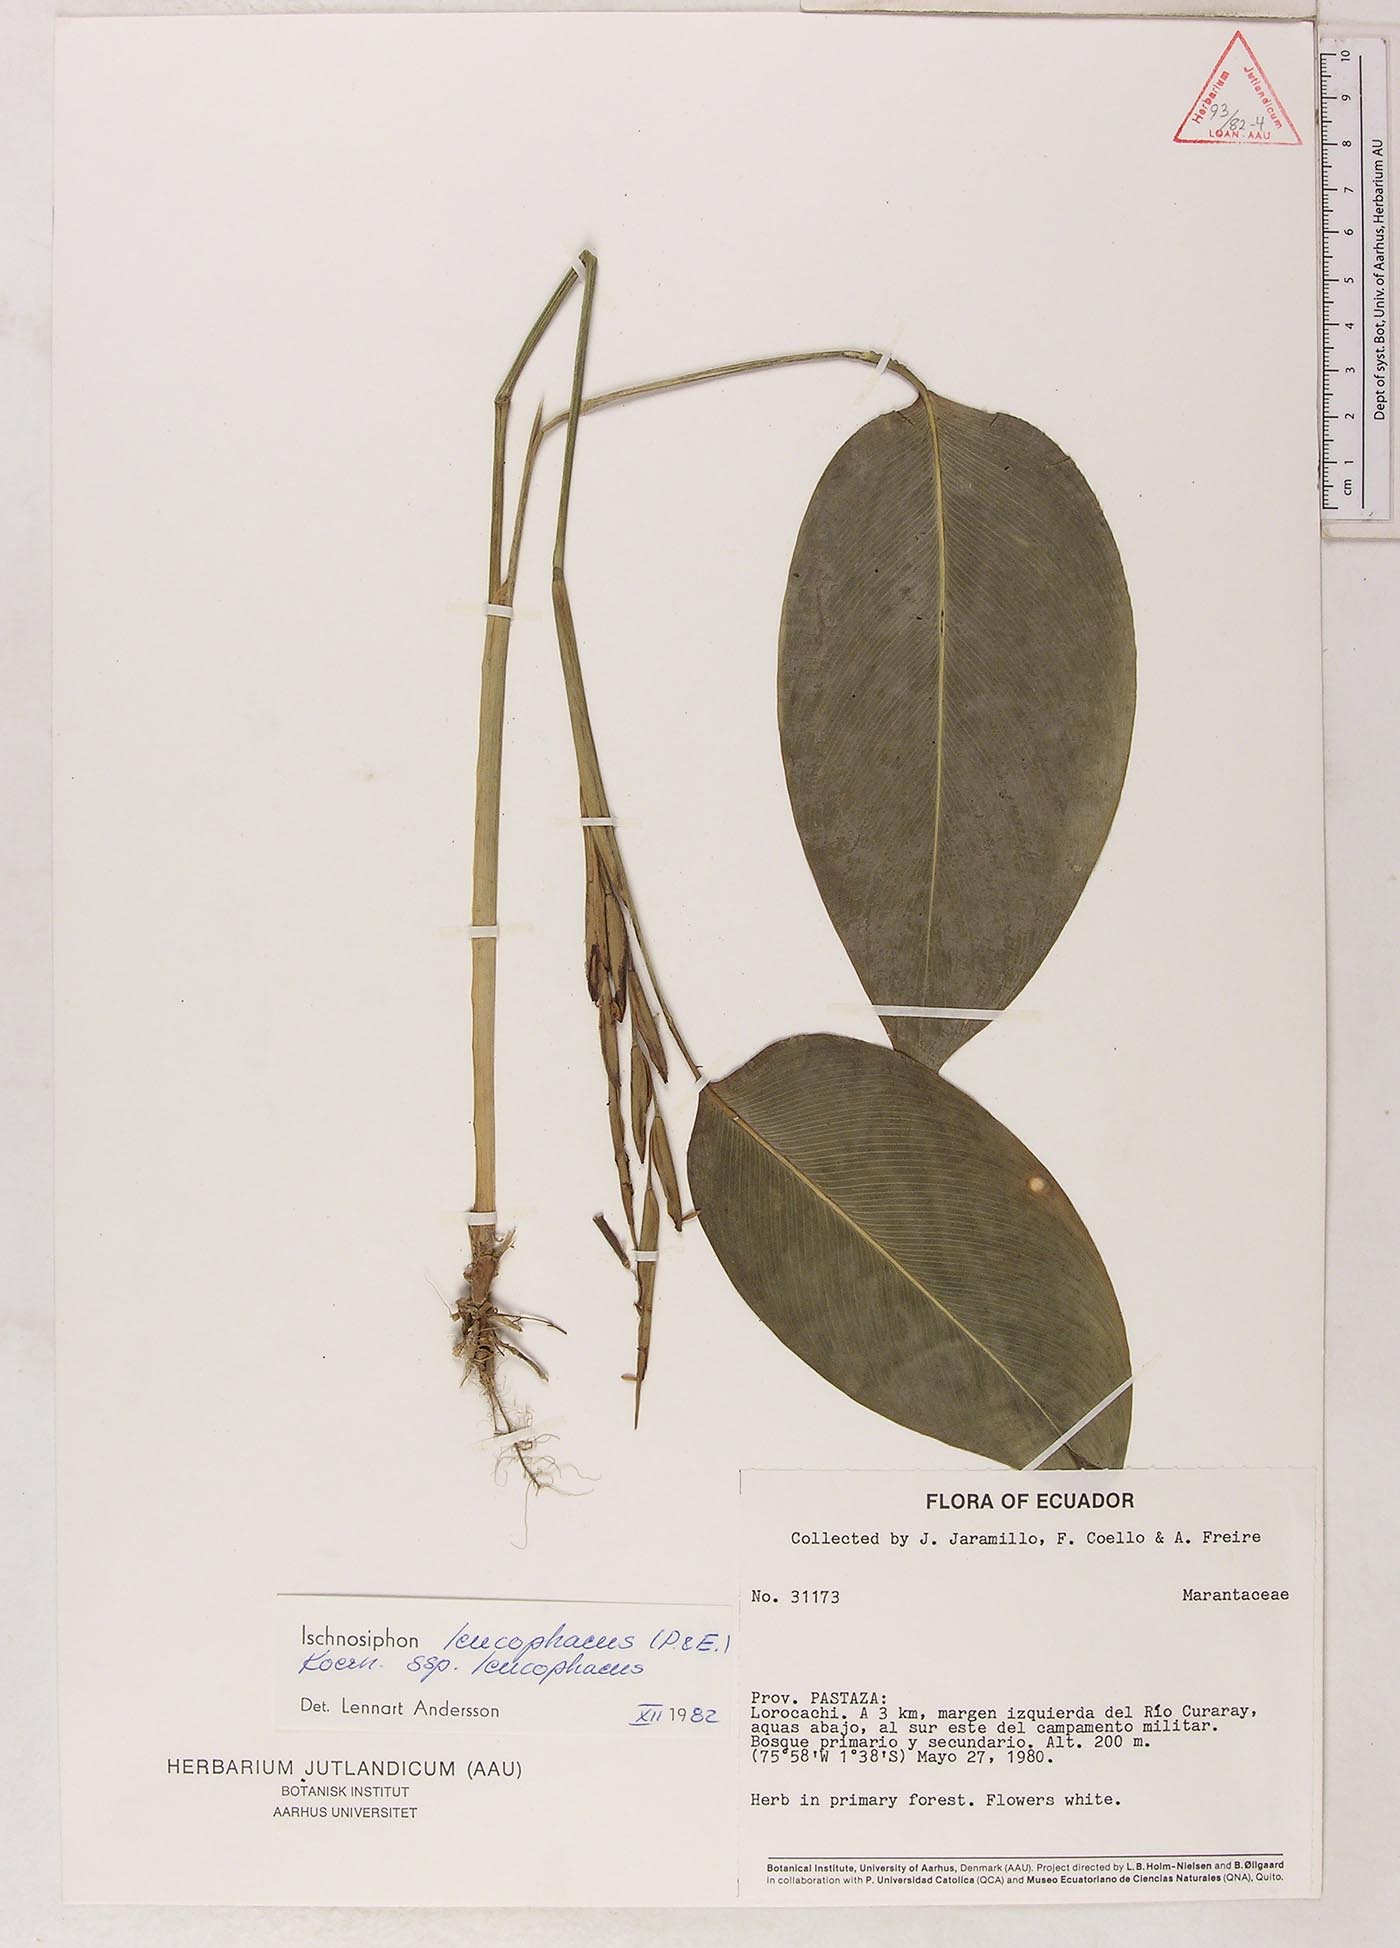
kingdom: Plantae
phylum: Tracheophyta
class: Liliopsida
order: Zingiberales
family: Marantaceae
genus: Ischnosiphon
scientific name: Ischnosiphon leucophaeus
